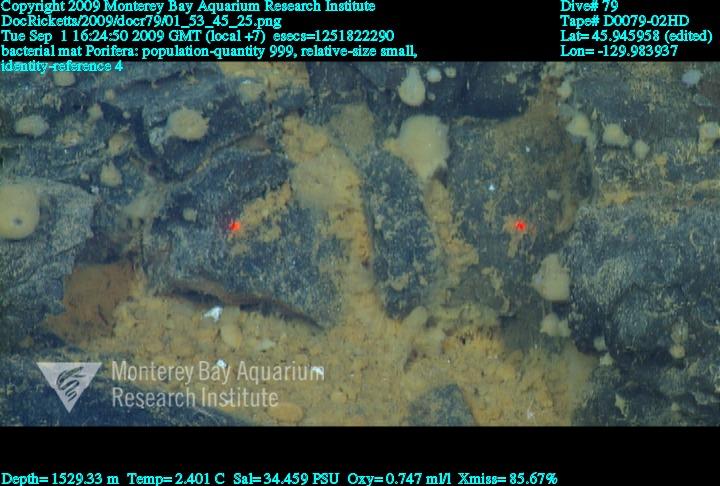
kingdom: Animalia
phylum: Porifera
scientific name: Porifera
